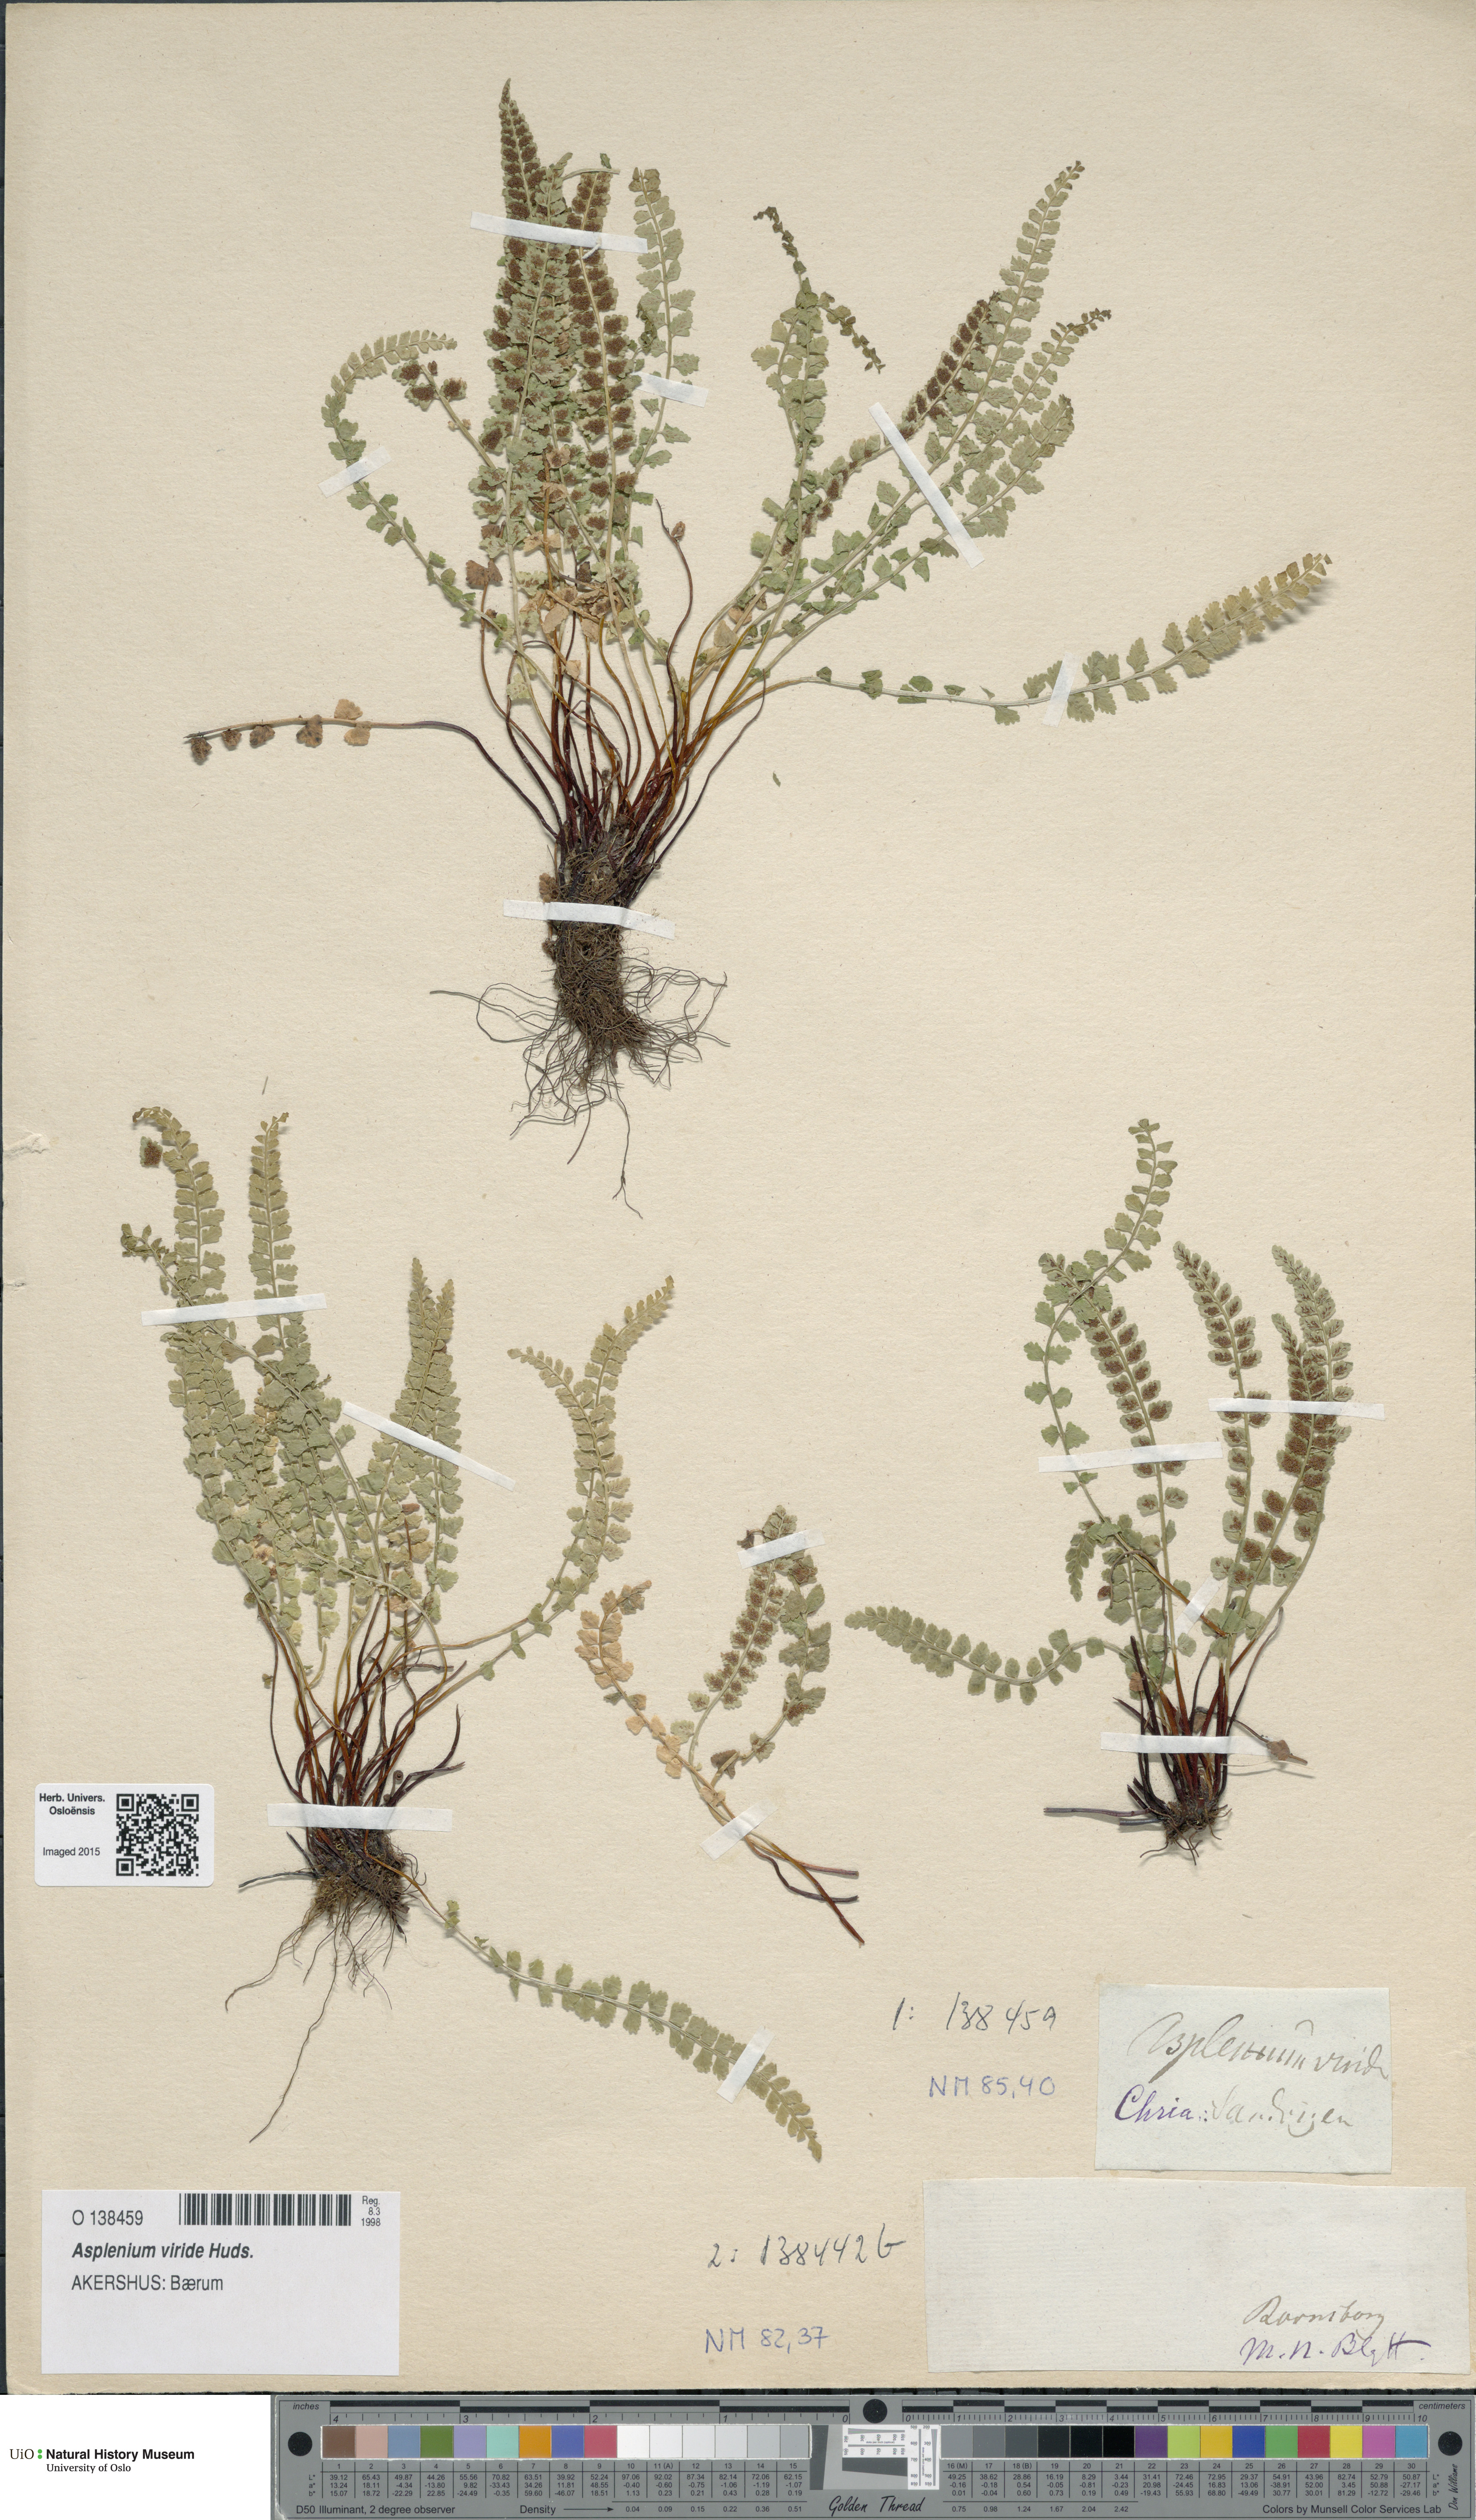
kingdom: Plantae
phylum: Tracheophyta
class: Polypodiopsida
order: Polypodiales
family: Aspleniaceae
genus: Asplenium
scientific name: Asplenium viride
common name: Green spleenwort
